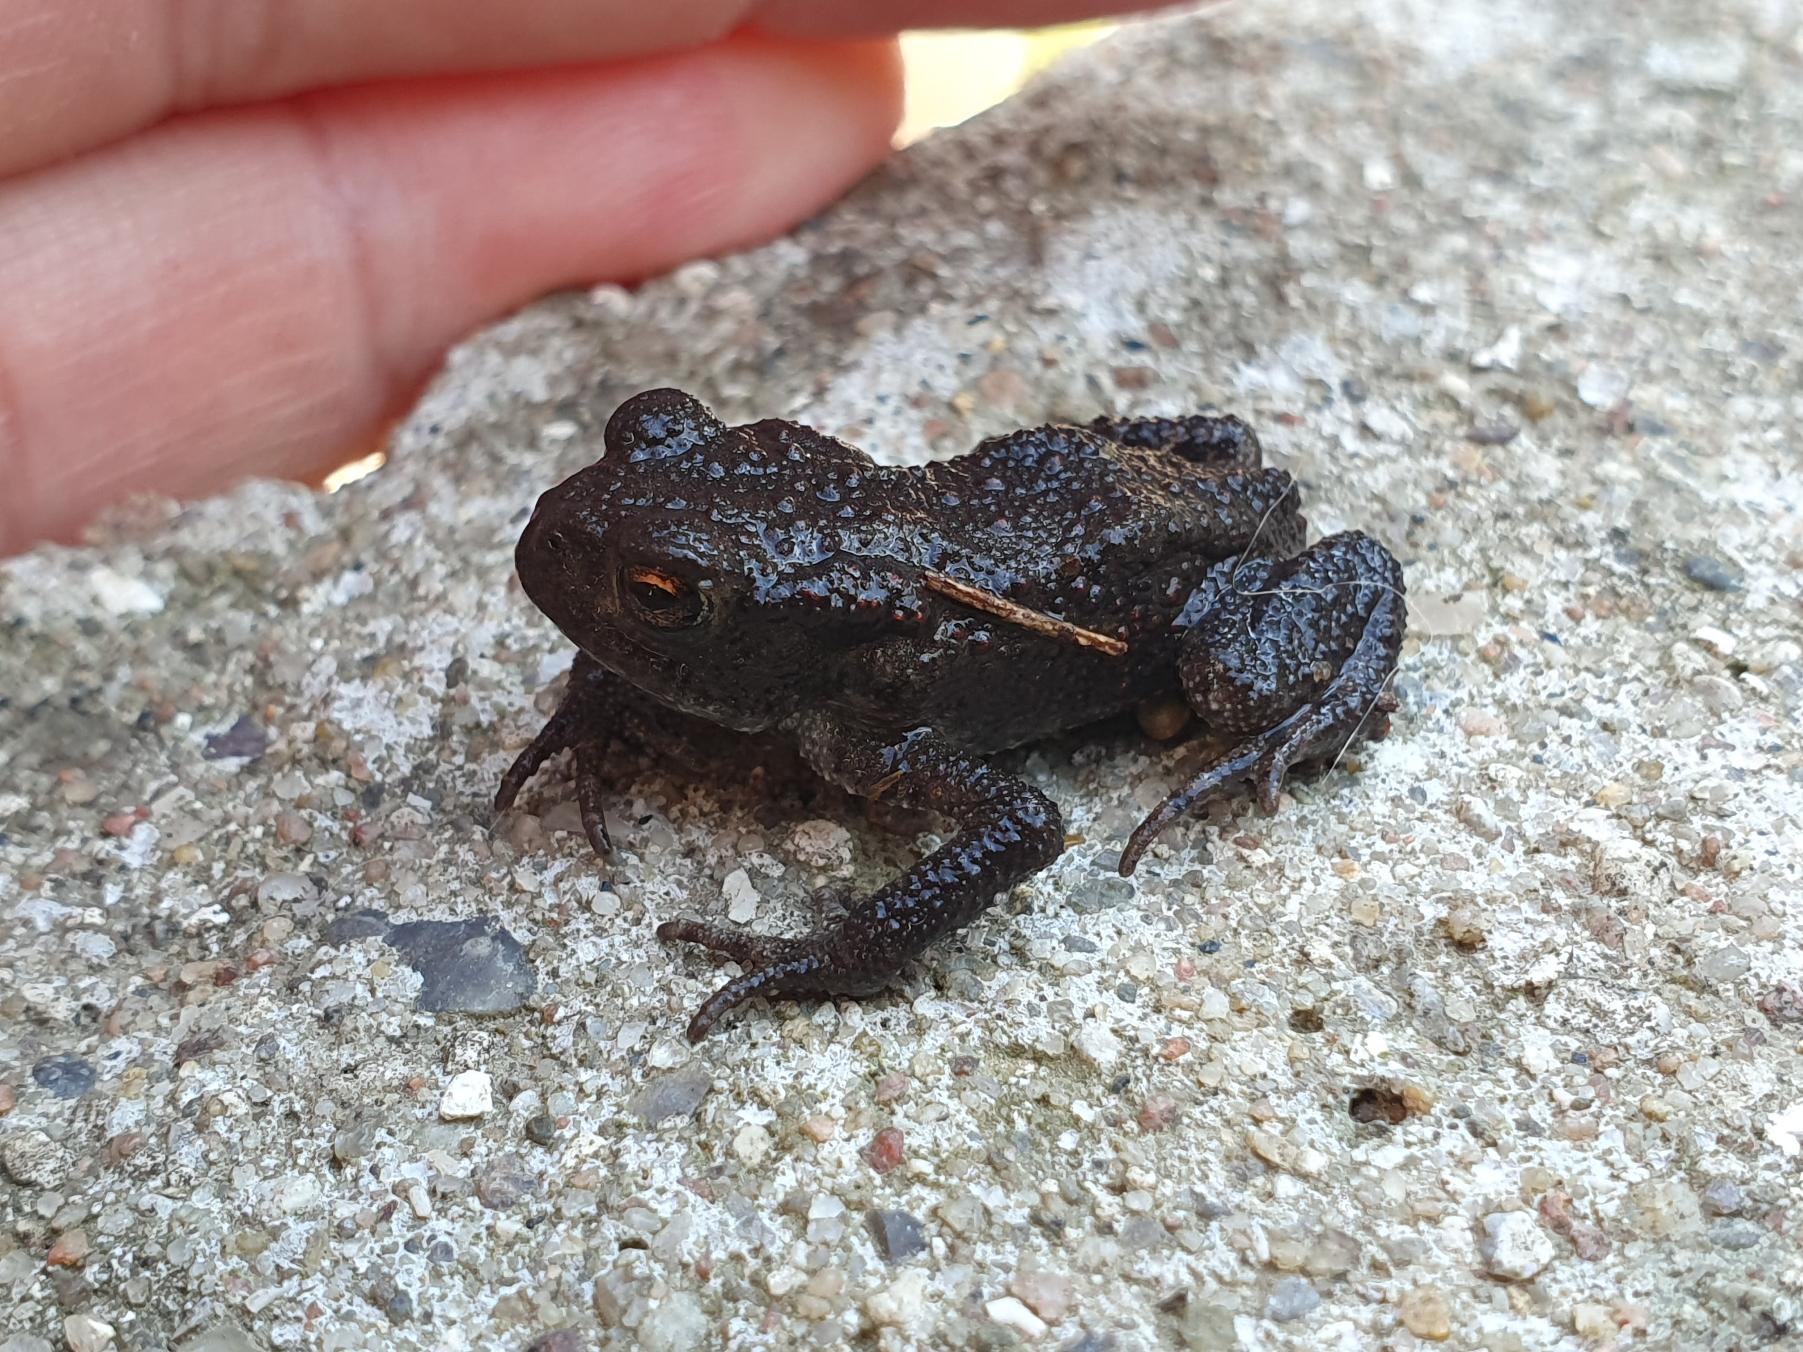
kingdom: Animalia
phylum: Chordata
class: Amphibia
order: Anura
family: Bufonidae
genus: Bufo
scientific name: Bufo bufo
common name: Skrubtudse
